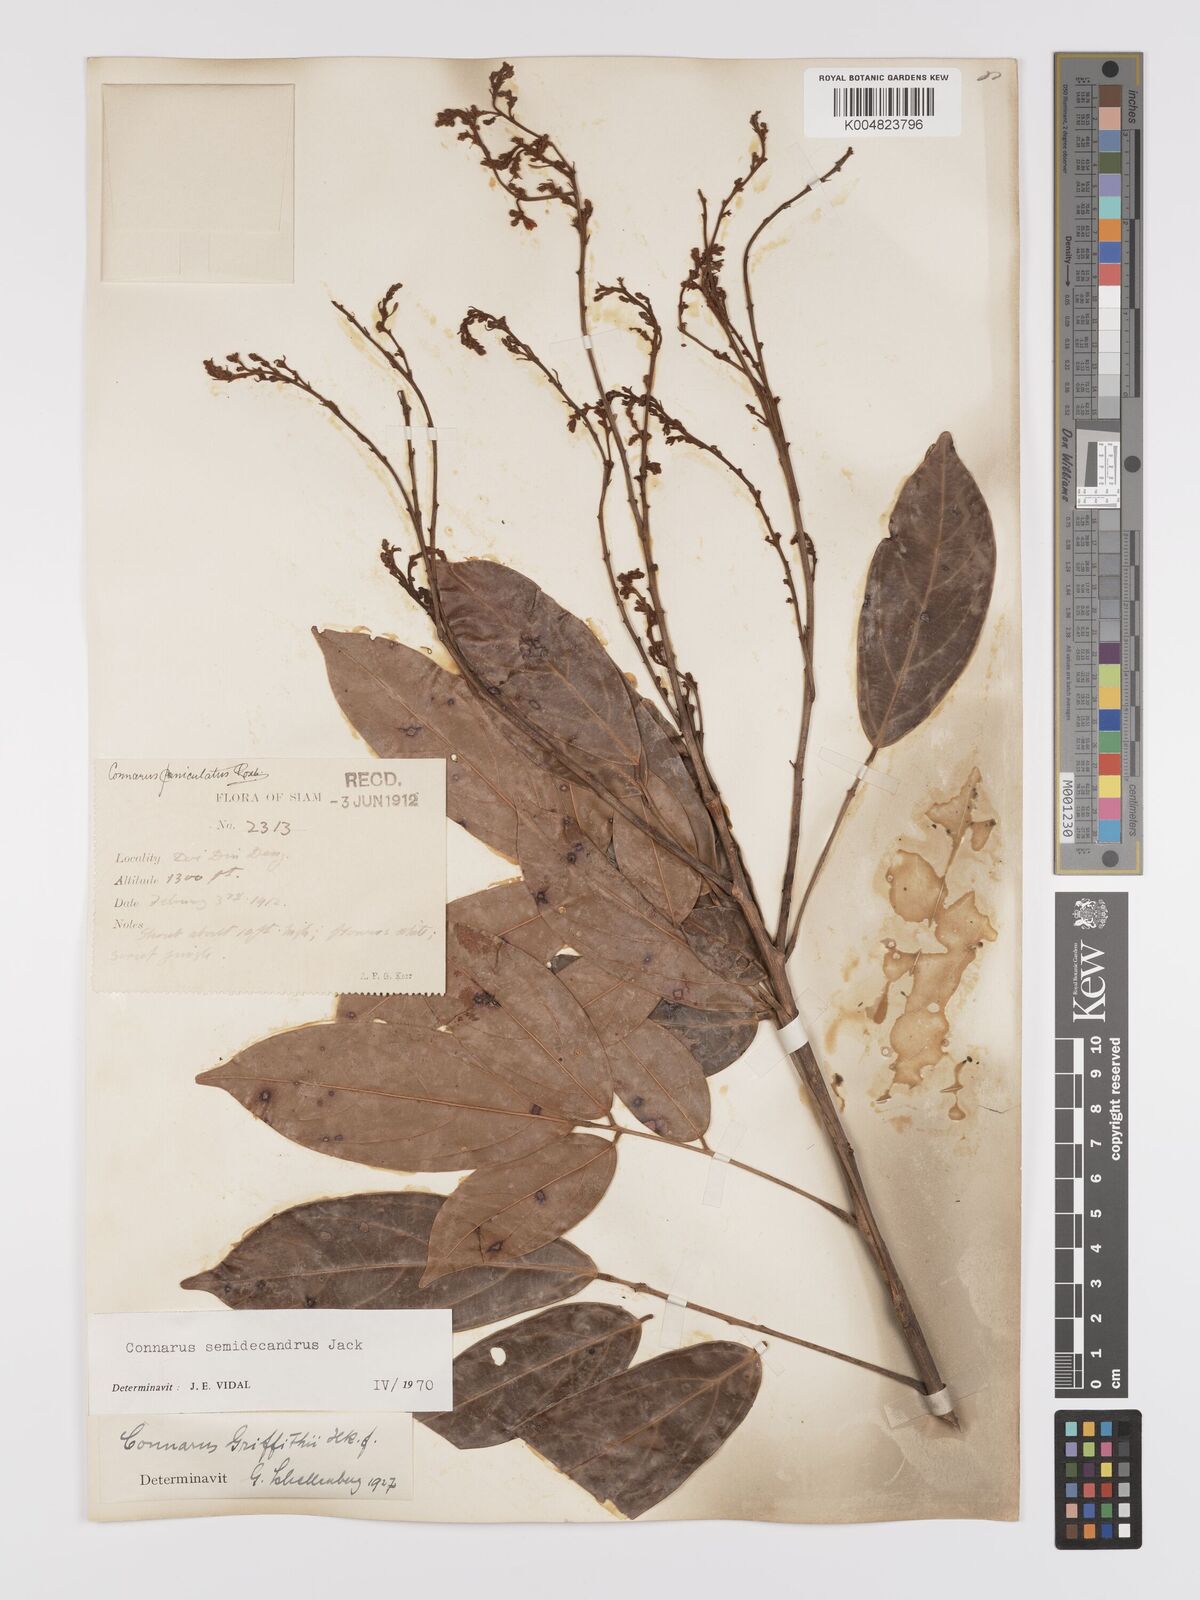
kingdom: Plantae
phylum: Tracheophyta
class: Magnoliopsida
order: Oxalidales
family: Connaraceae
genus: Connarus
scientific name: Connarus semidecandrus
